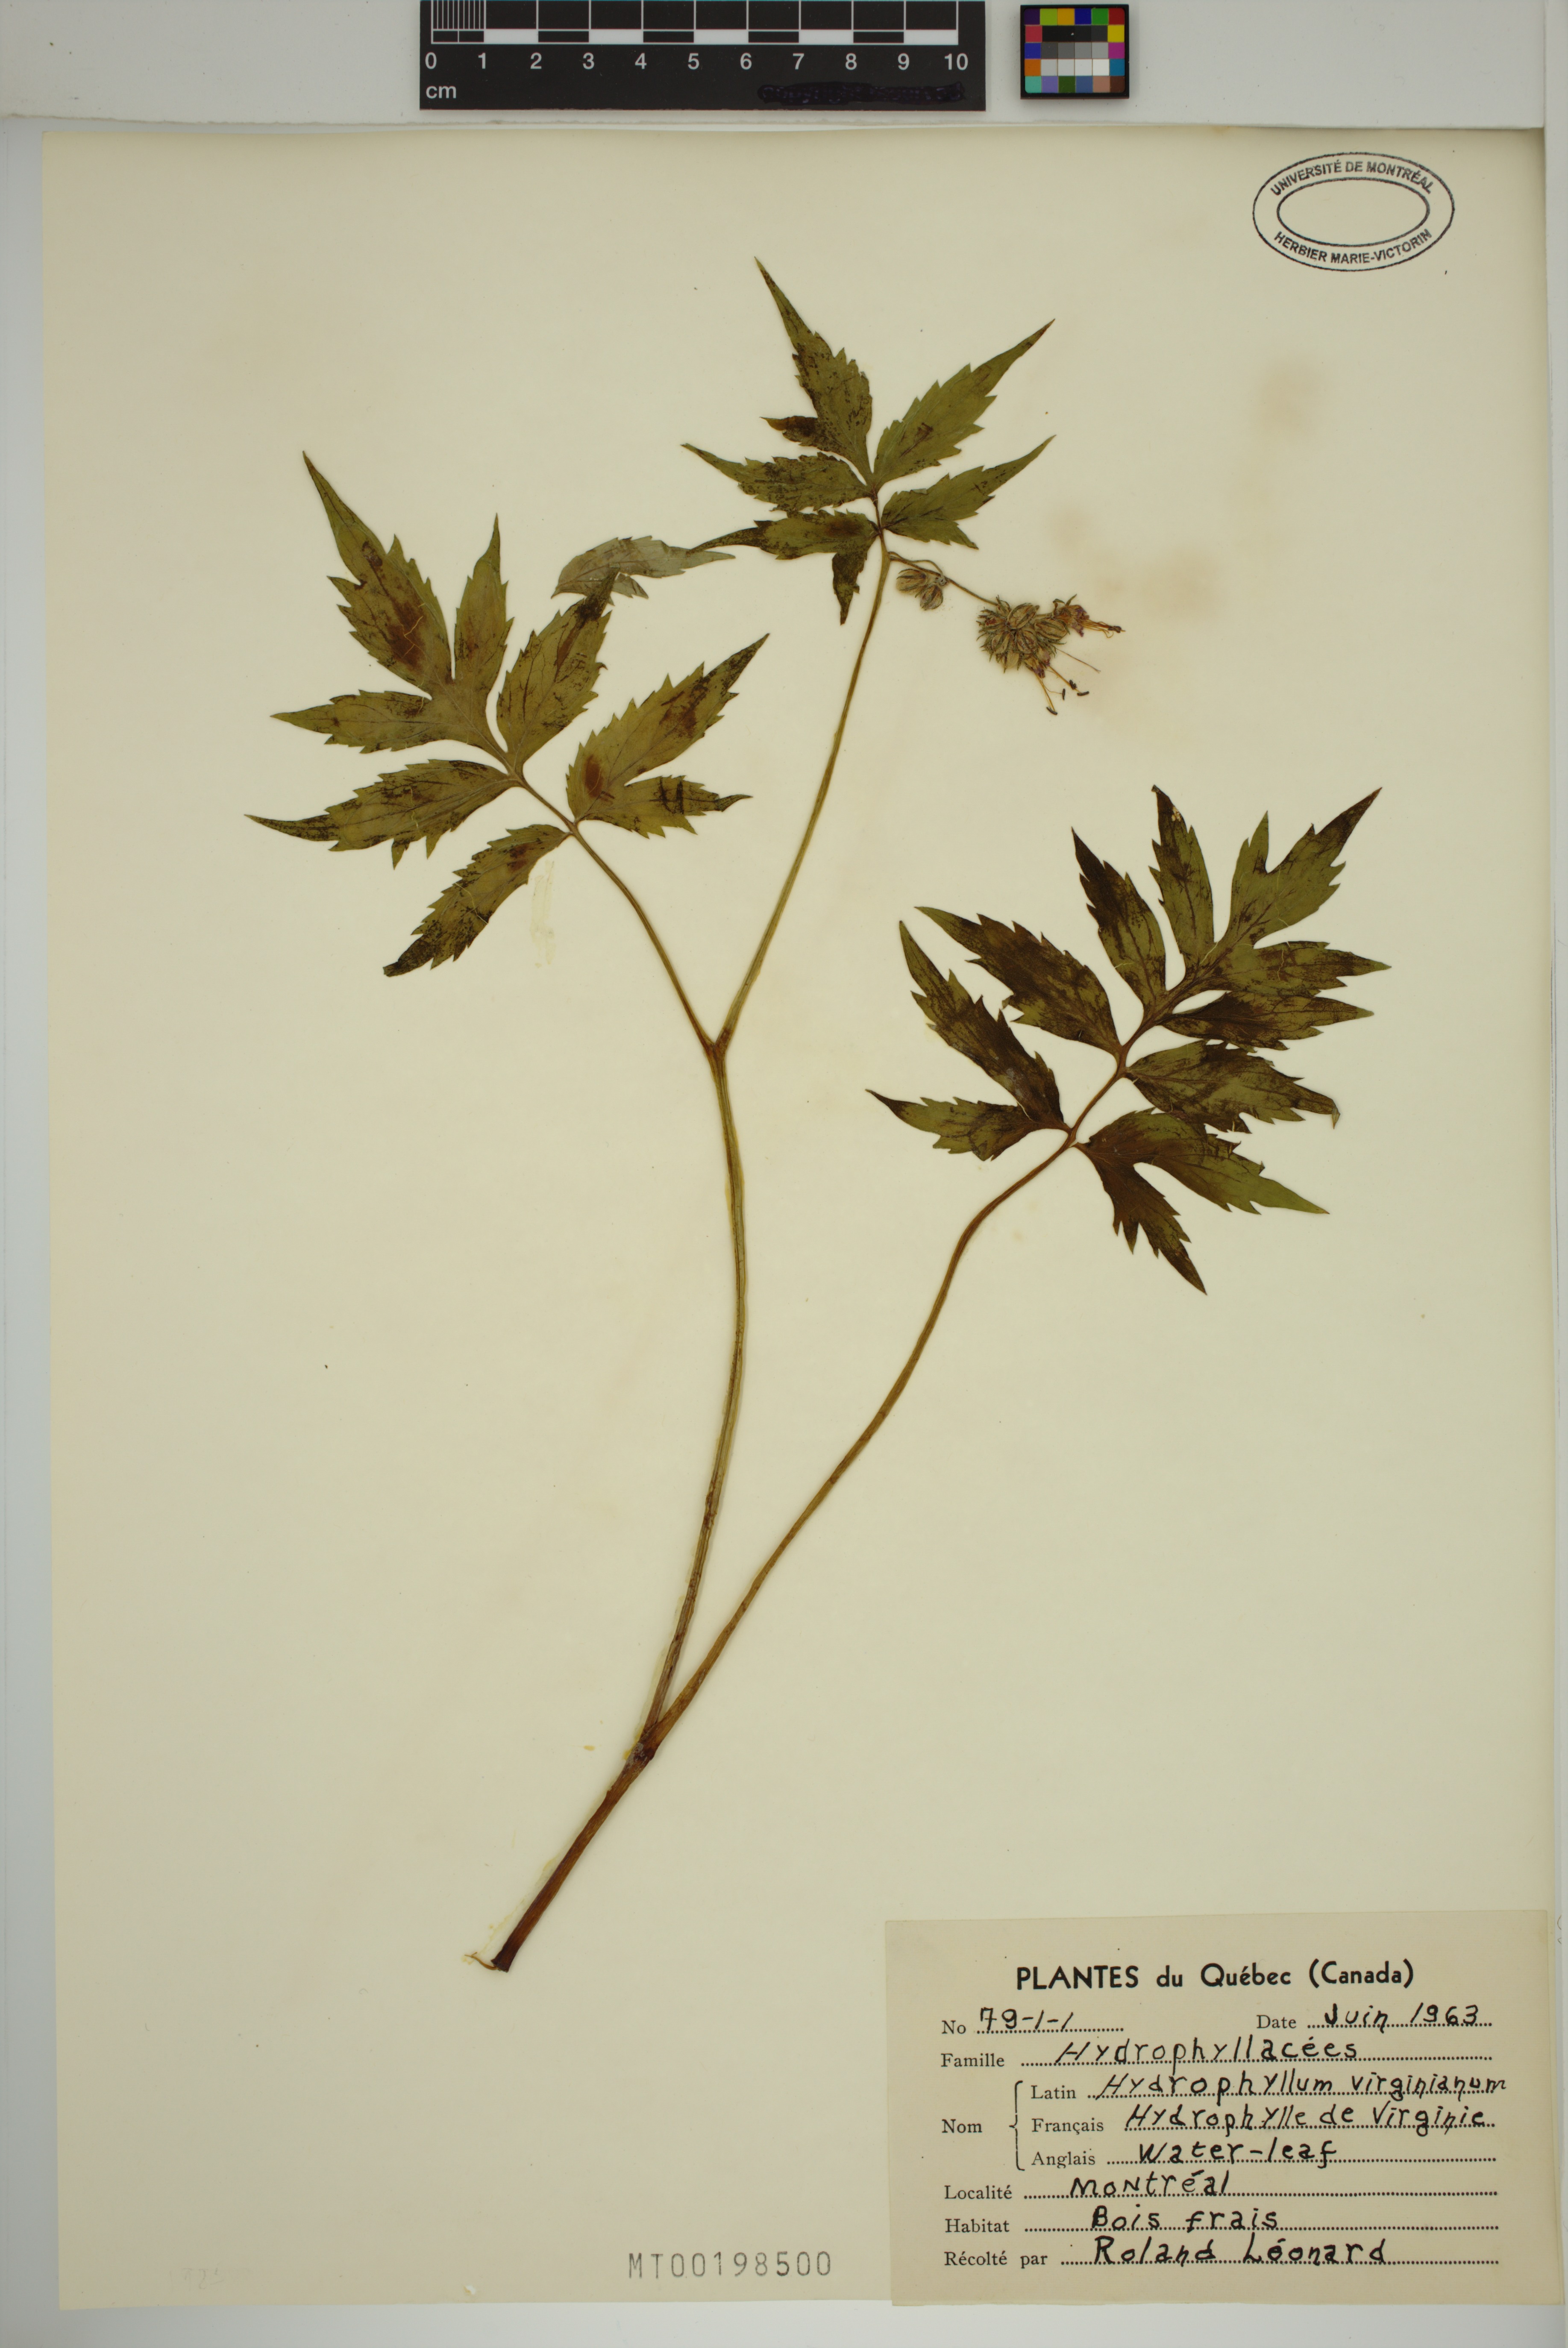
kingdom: Plantae
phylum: Tracheophyta
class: Magnoliopsida
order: Boraginales
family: Hydrophyllaceae
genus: Hydrophyllum
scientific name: Hydrophyllum virginianum
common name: Virginia waterleaf
